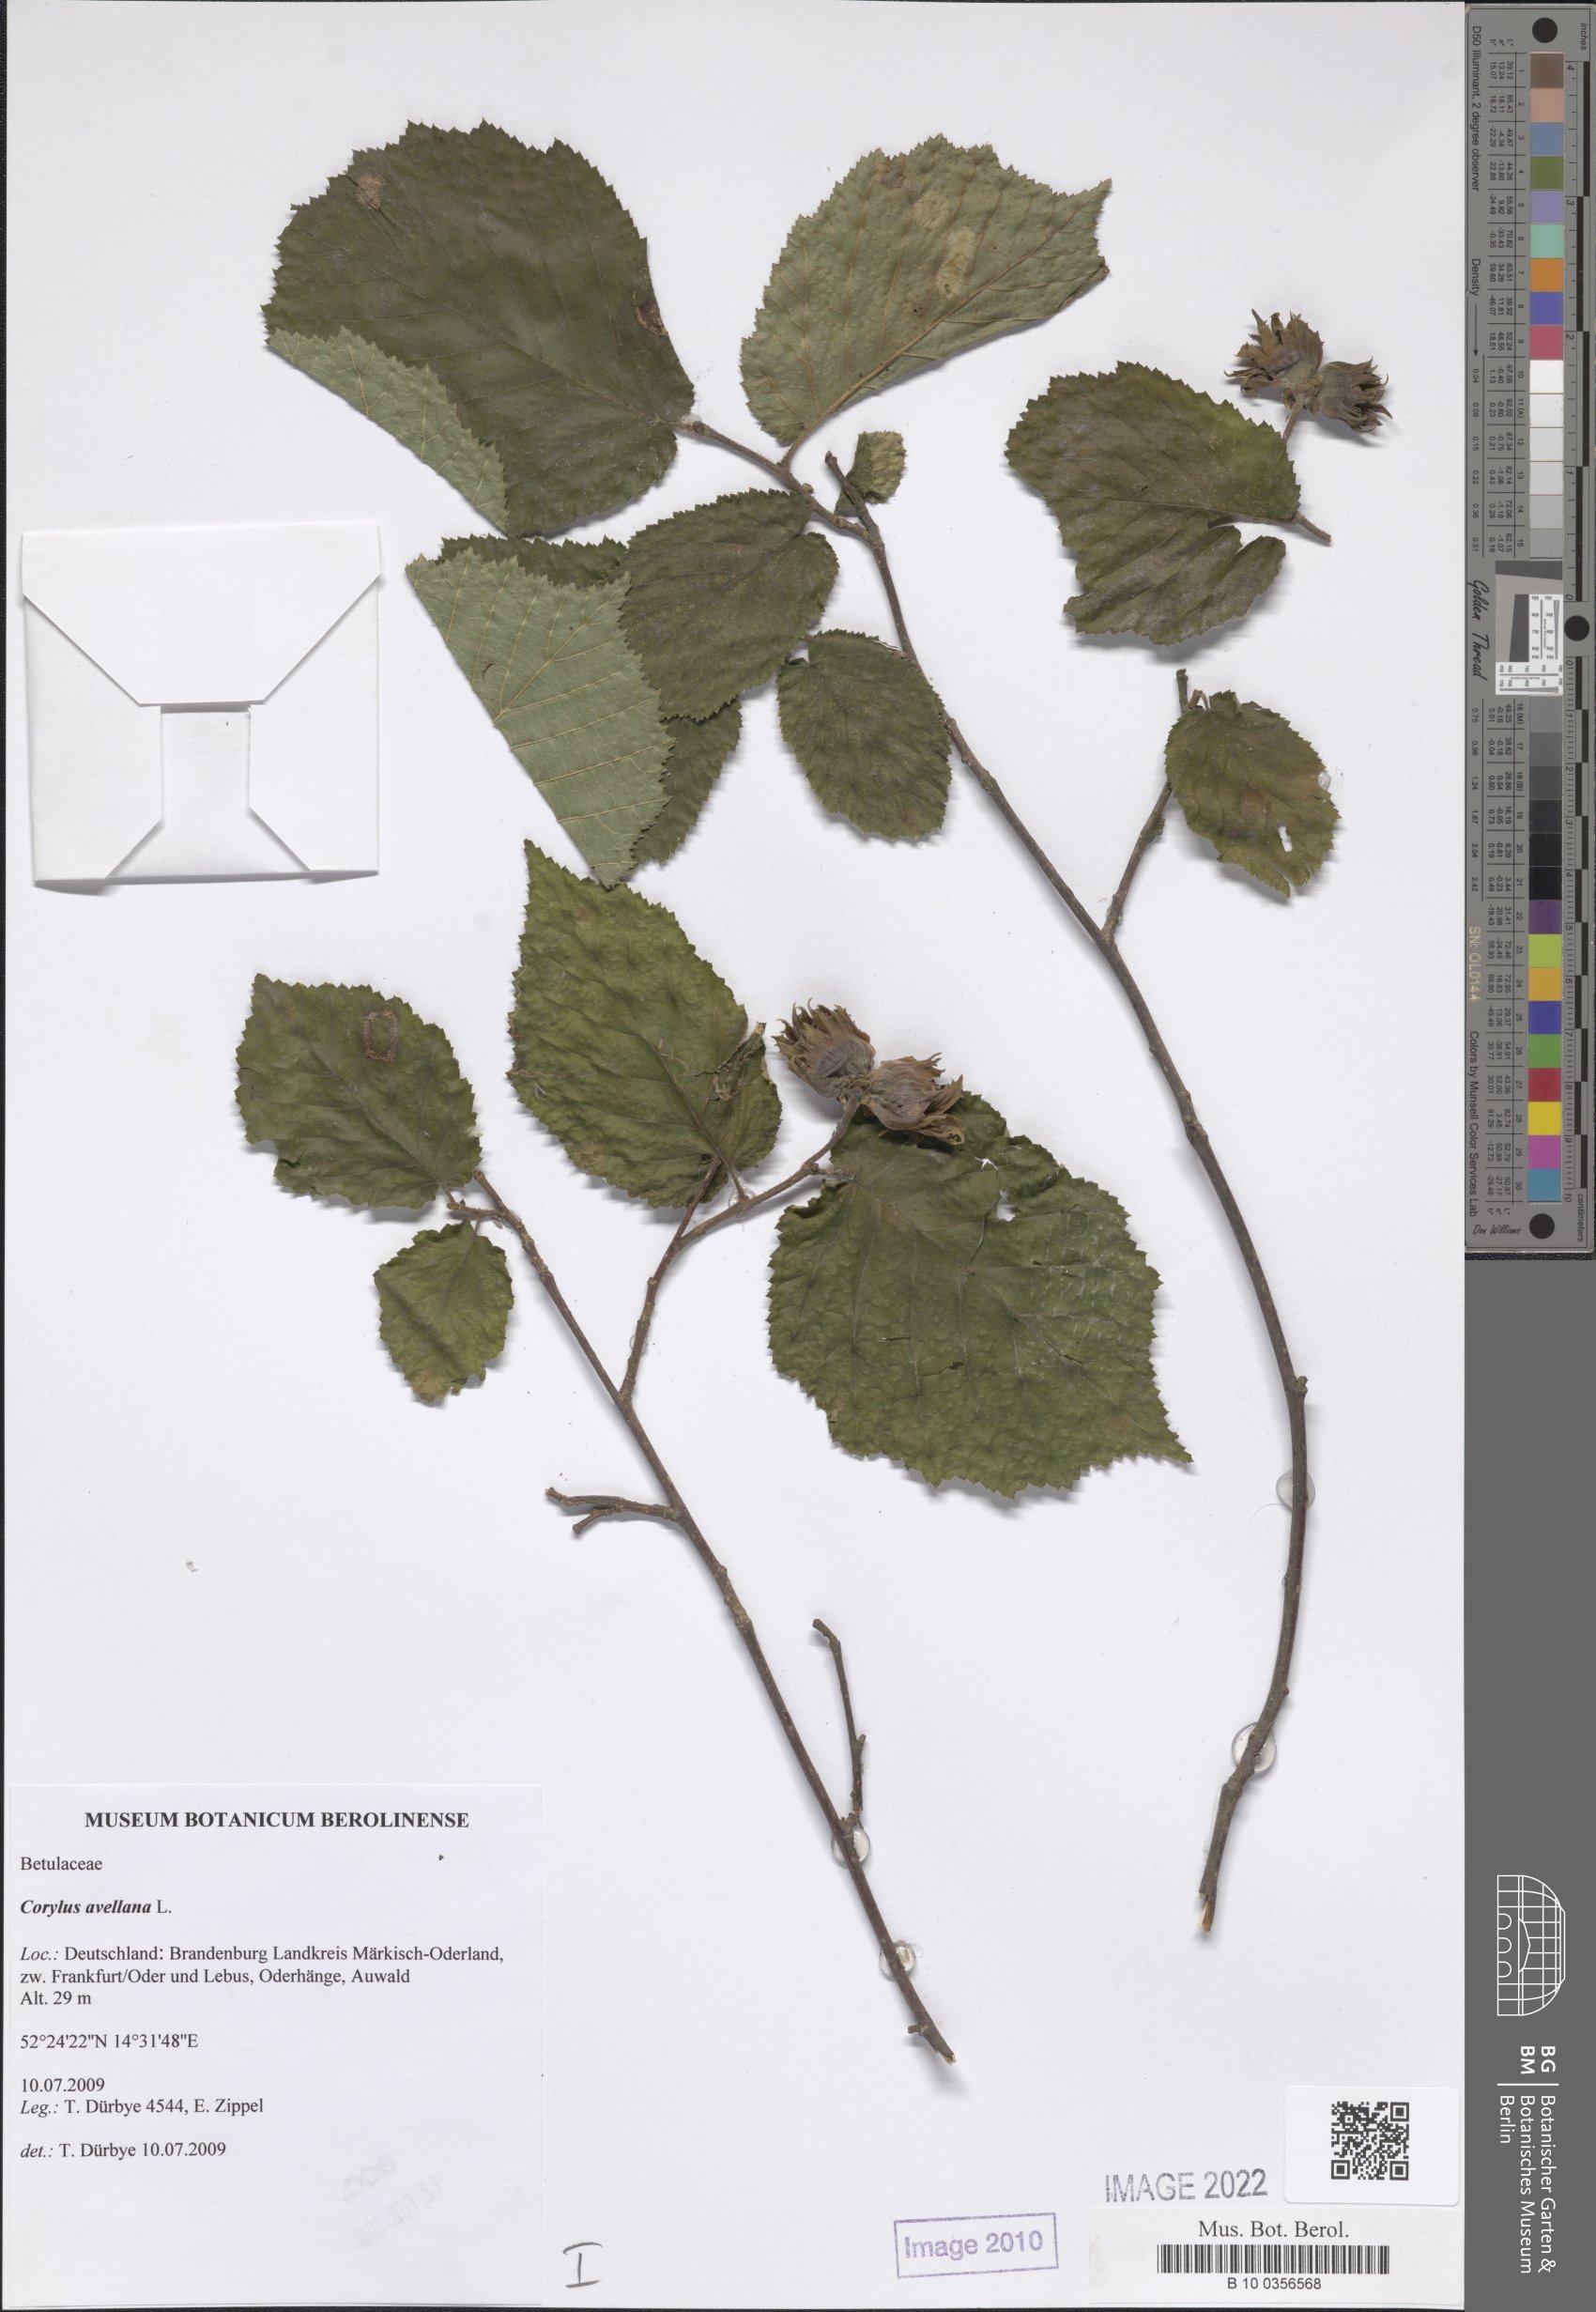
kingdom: Plantae
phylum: Tracheophyta
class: Magnoliopsida
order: Fagales
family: Betulaceae
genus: Corylus
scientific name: Corylus avellana
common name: European hazel
